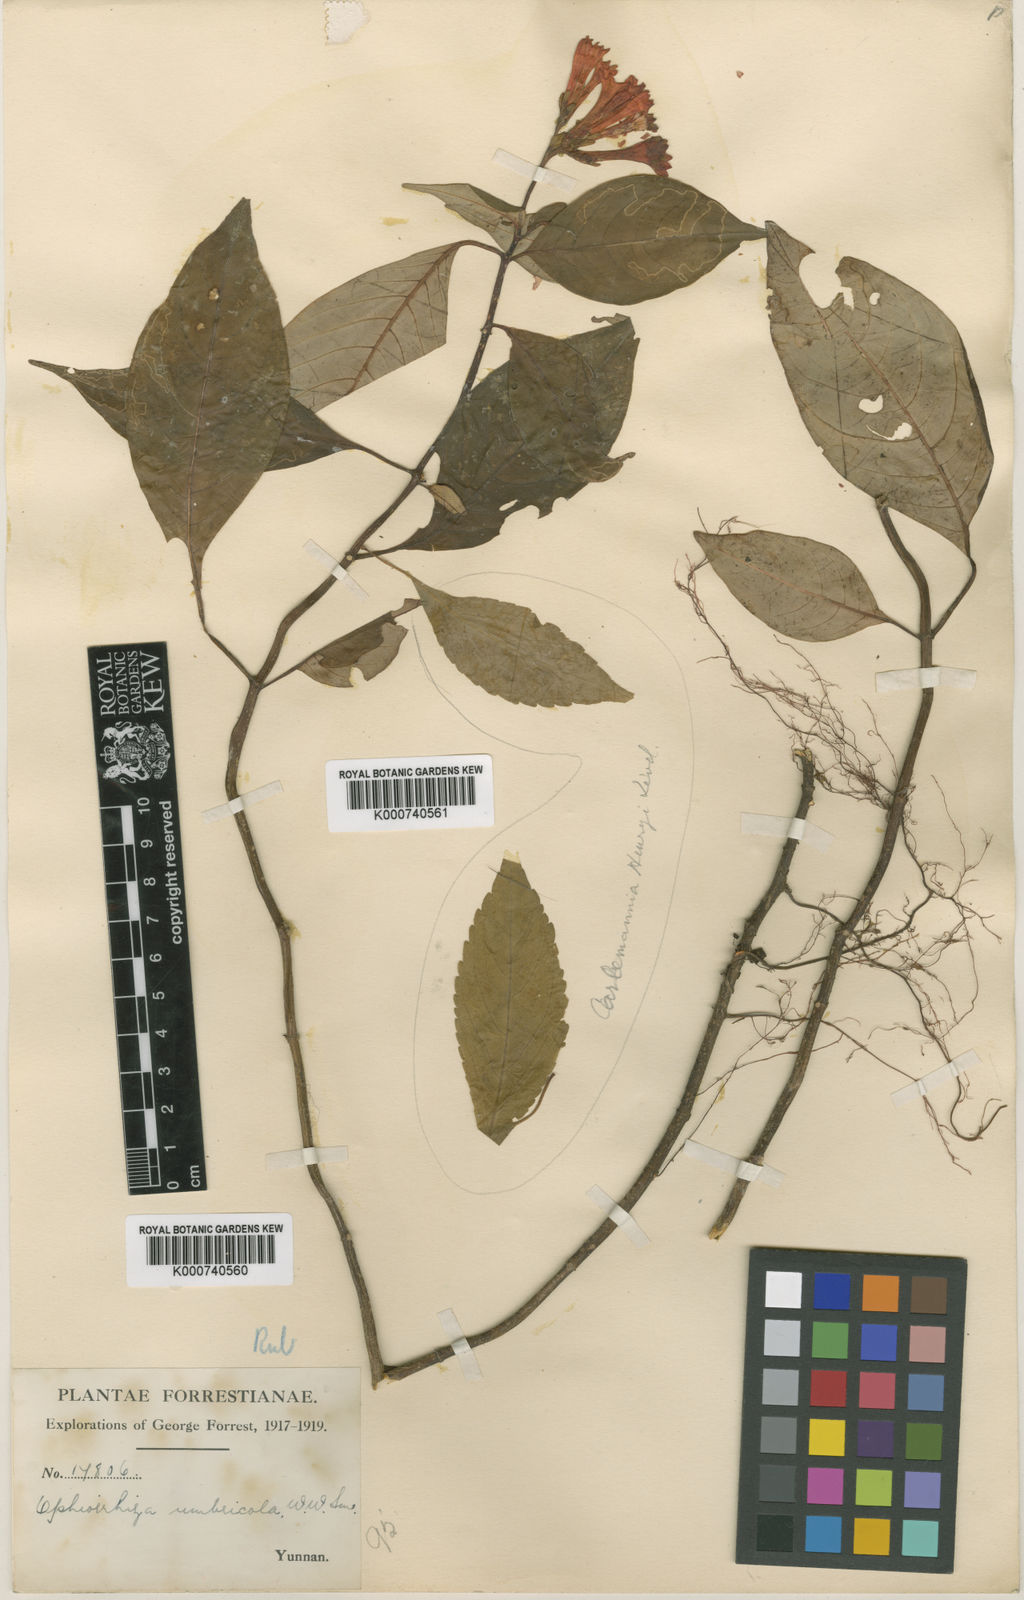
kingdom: Plantae
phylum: Tracheophyta
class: Magnoliopsida
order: Gentianales
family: Rubiaceae
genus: Ophiorrhiza
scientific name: Ophiorrhiza umbricola
